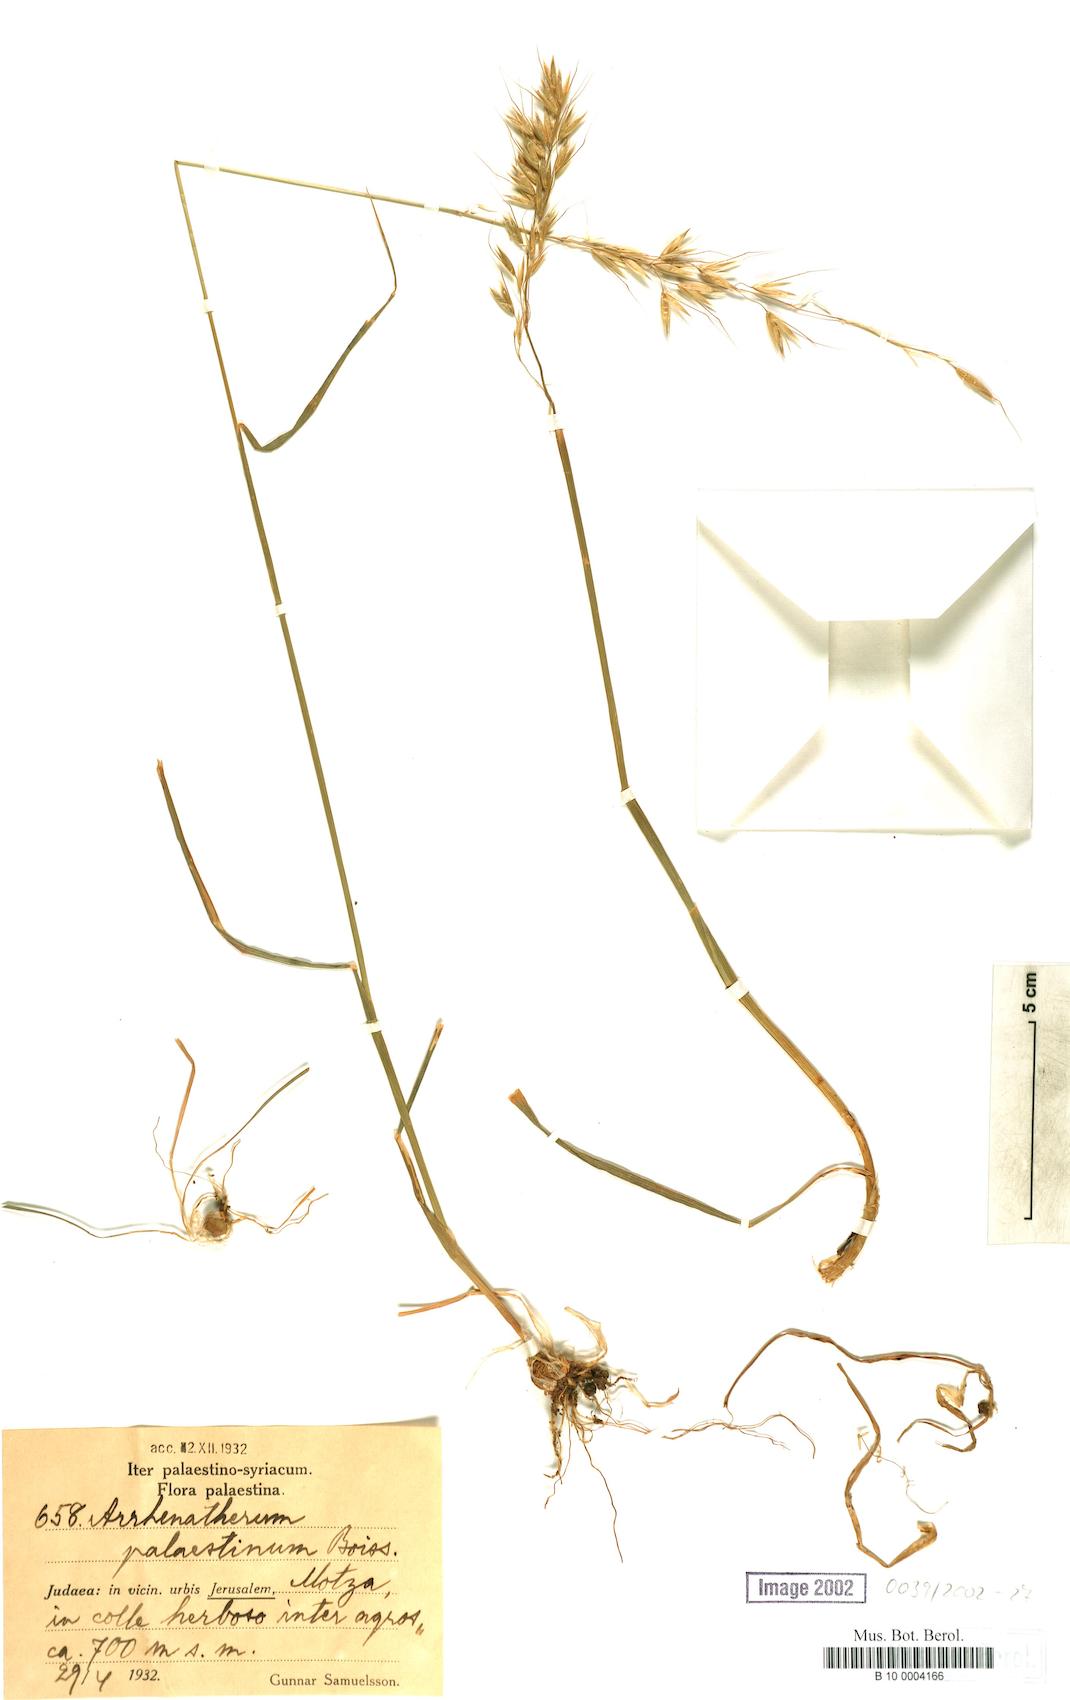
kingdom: Plantae
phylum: Tracheophyta
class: Liliopsida
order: Poales
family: Poaceae
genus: Arrhenatherum
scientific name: Arrhenatherum palaestinum
